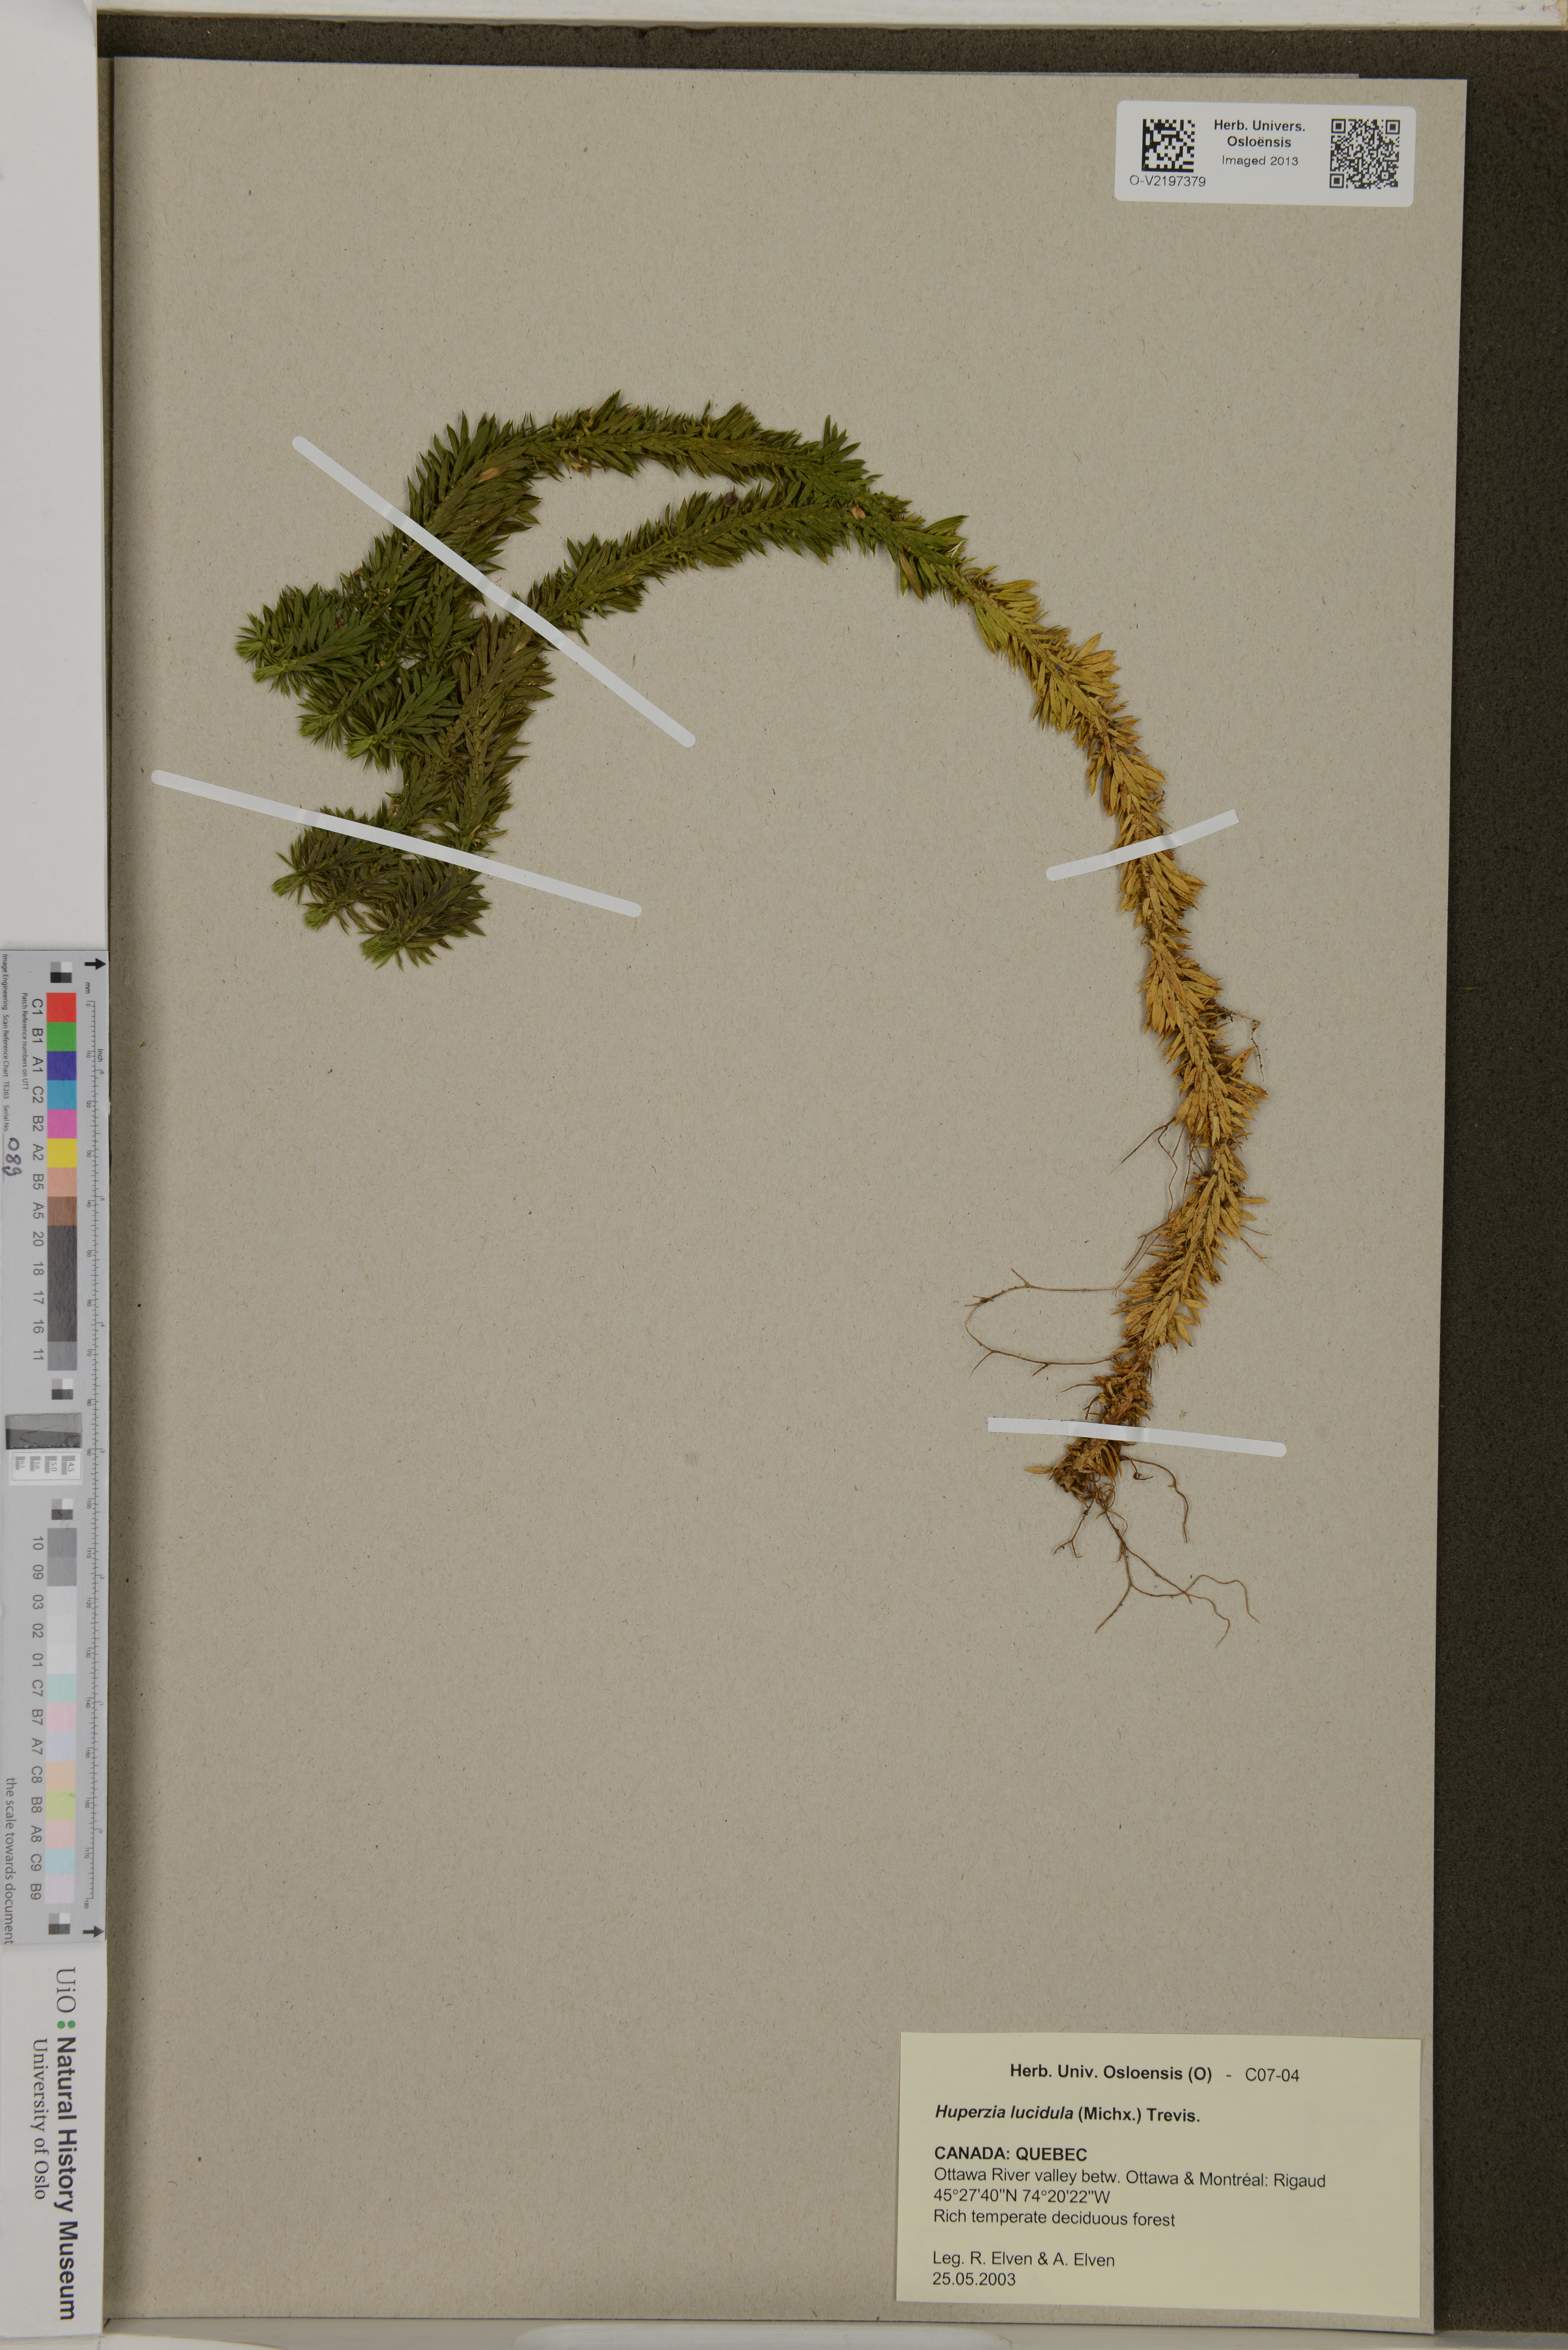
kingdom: Plantae
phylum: Tracheophyta
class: Lycopodiopsida
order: Lycopodiales
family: Lycopodiaceae
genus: Huperzia
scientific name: Huperzia lucidula
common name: Shining clubmoss
